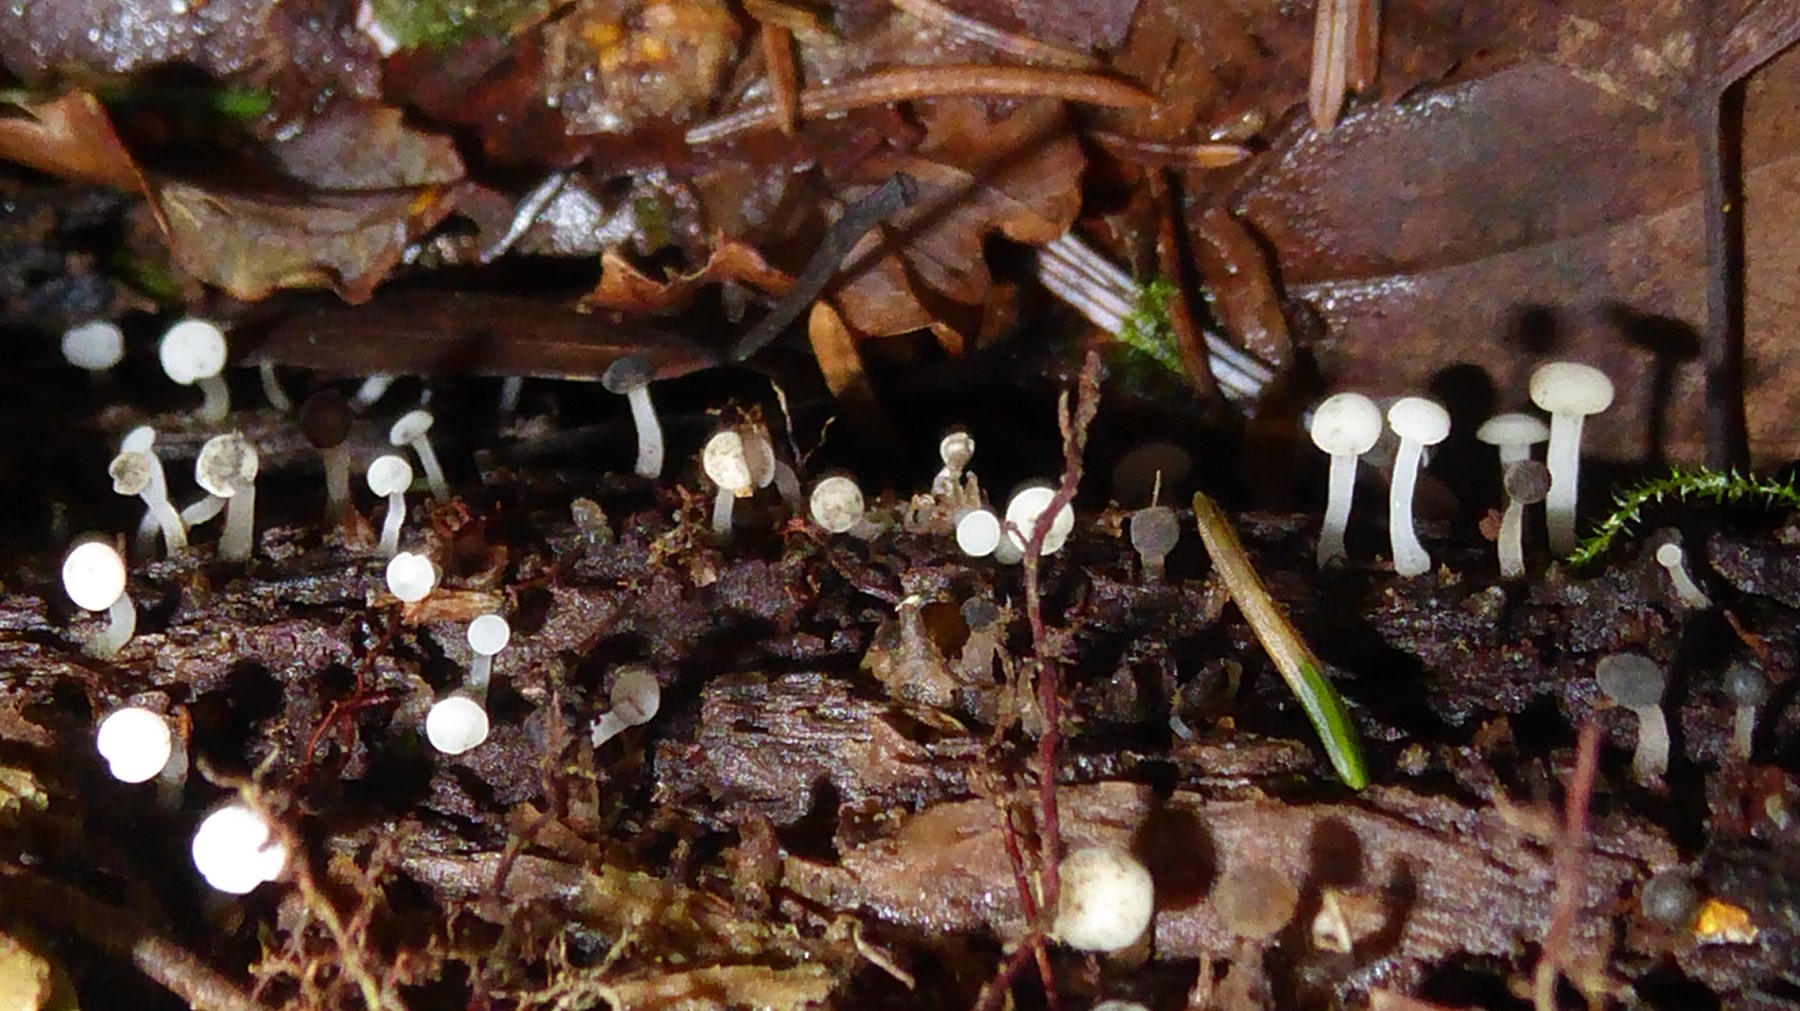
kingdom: Fungi
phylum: Ascomycota
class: Leotiomycetes
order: Helotiales
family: Tricladiaceae
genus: Cudoniella
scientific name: Cudoniella acicularis
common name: ege-dyndskive
